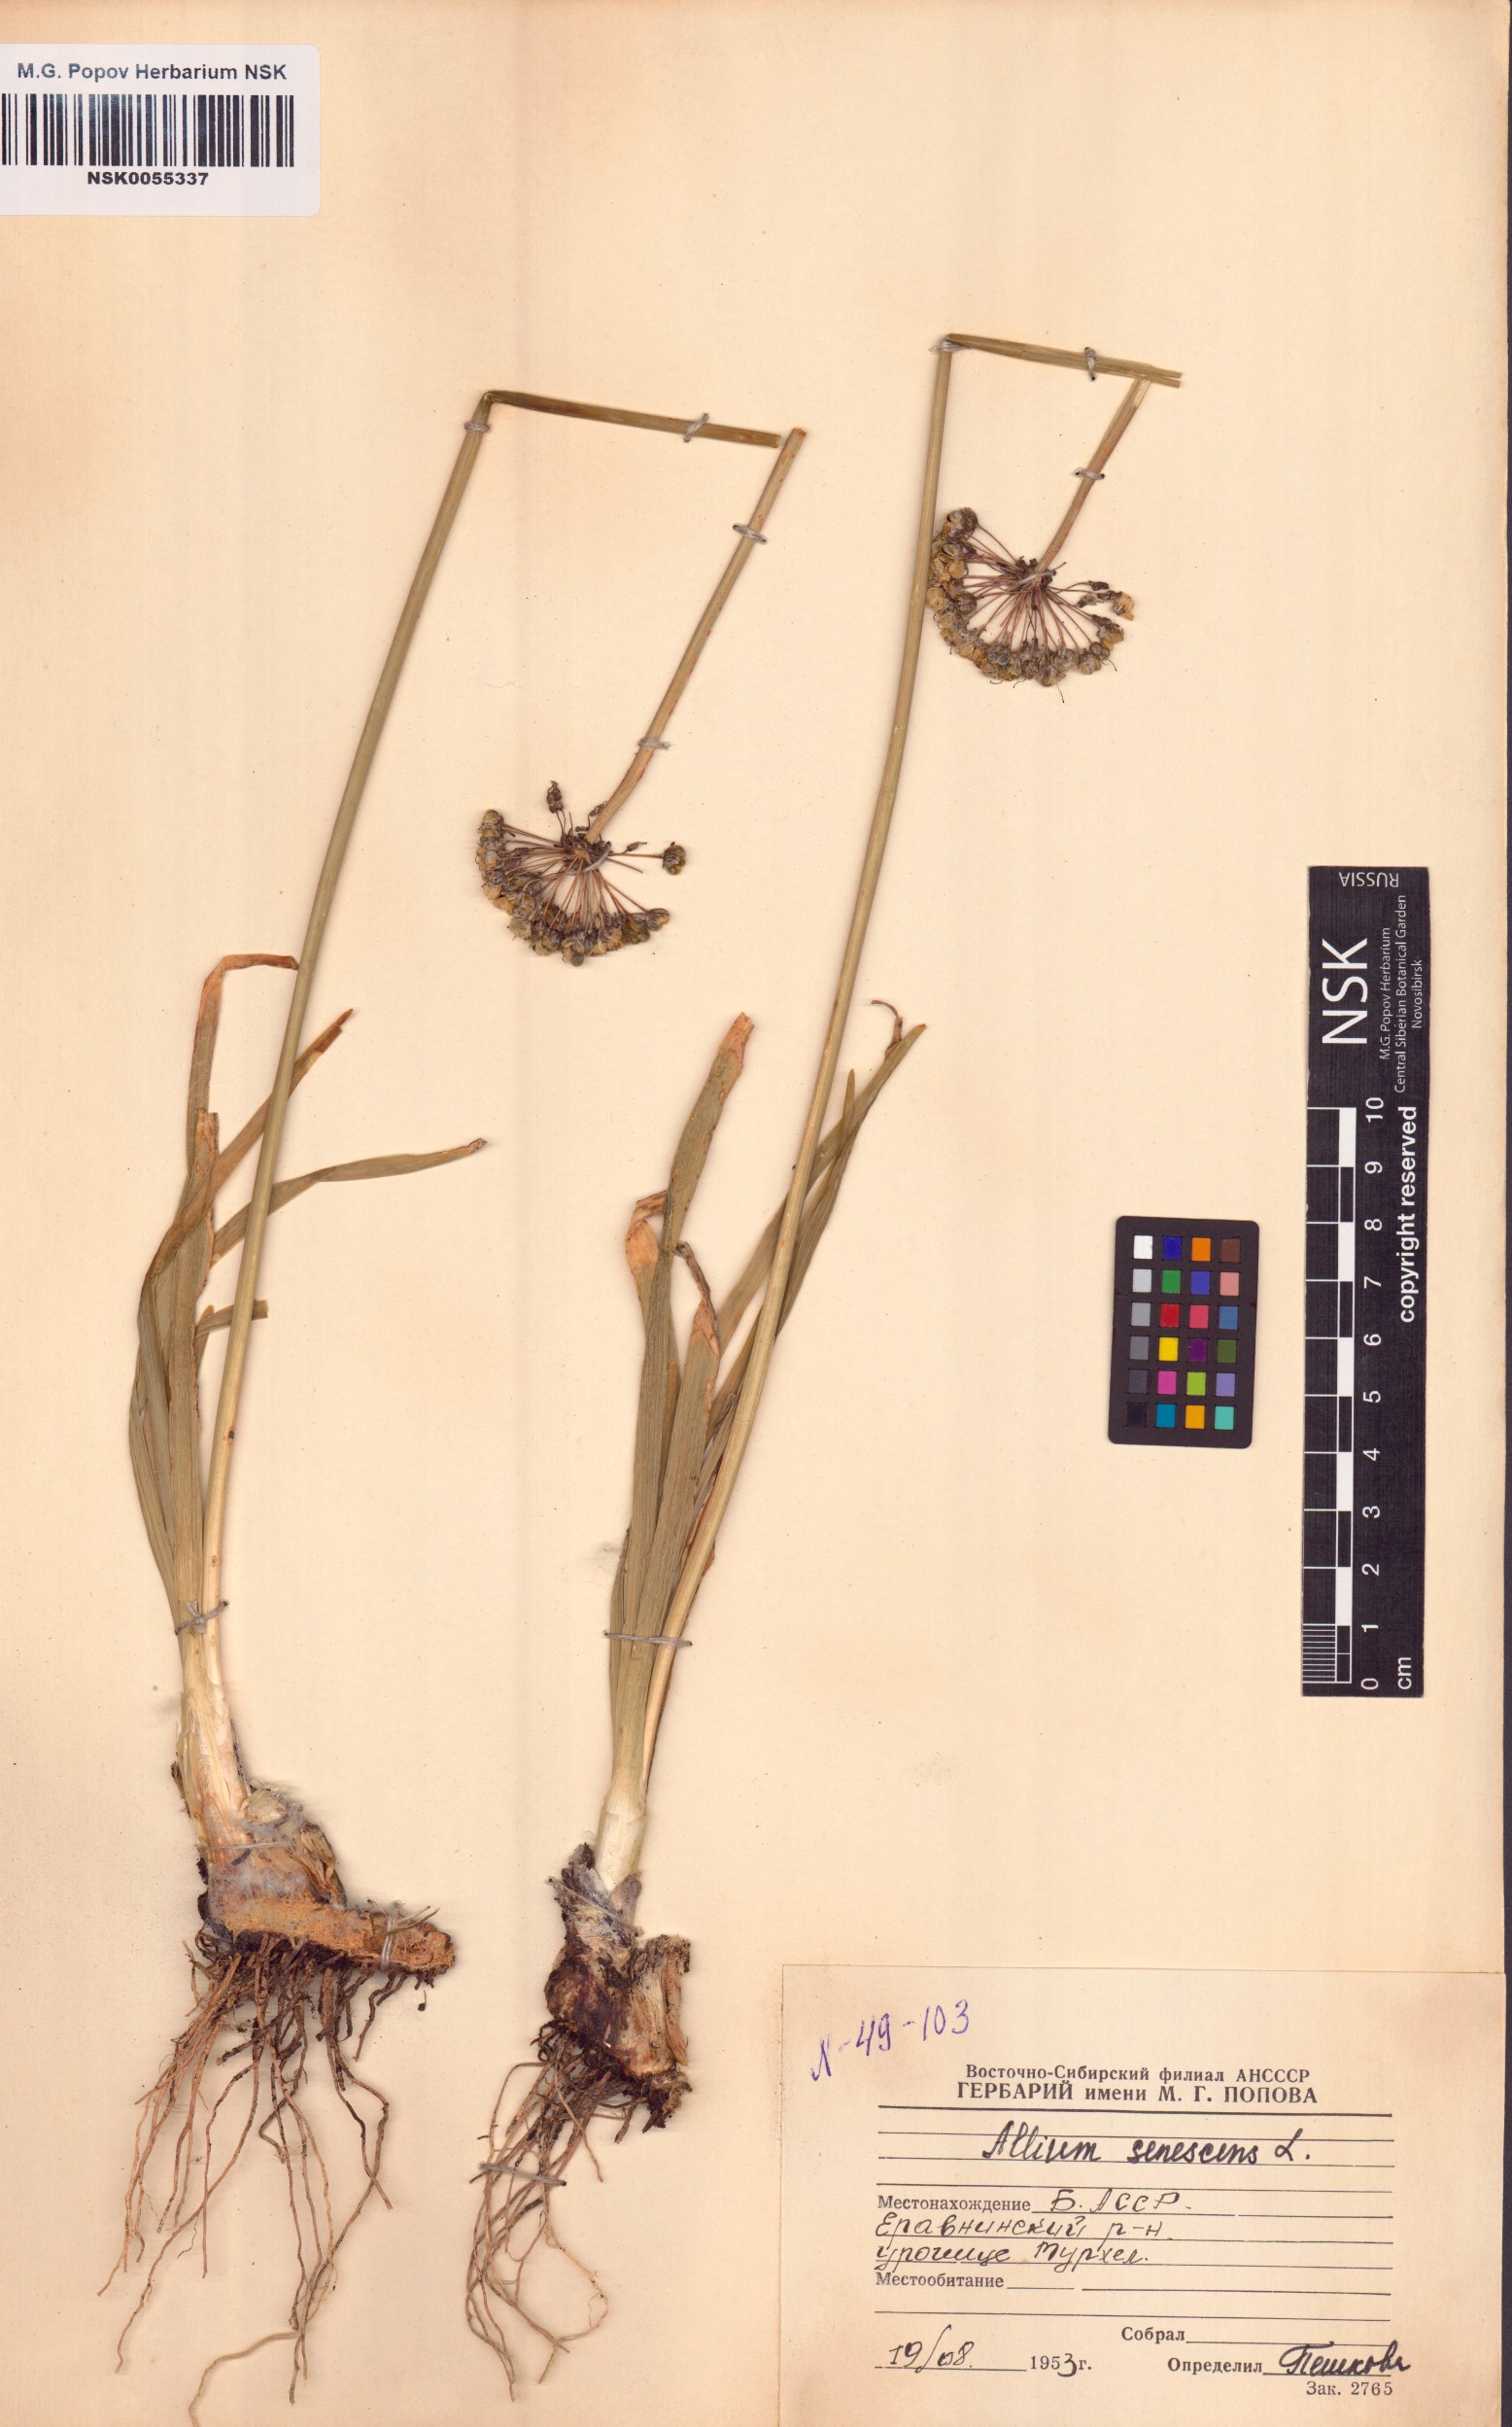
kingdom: Plantae
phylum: Tracheophyta
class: Liliopsida
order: Asparagales
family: Amaryllidaceae
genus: Allium
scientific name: Allium senescens
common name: German garlic
